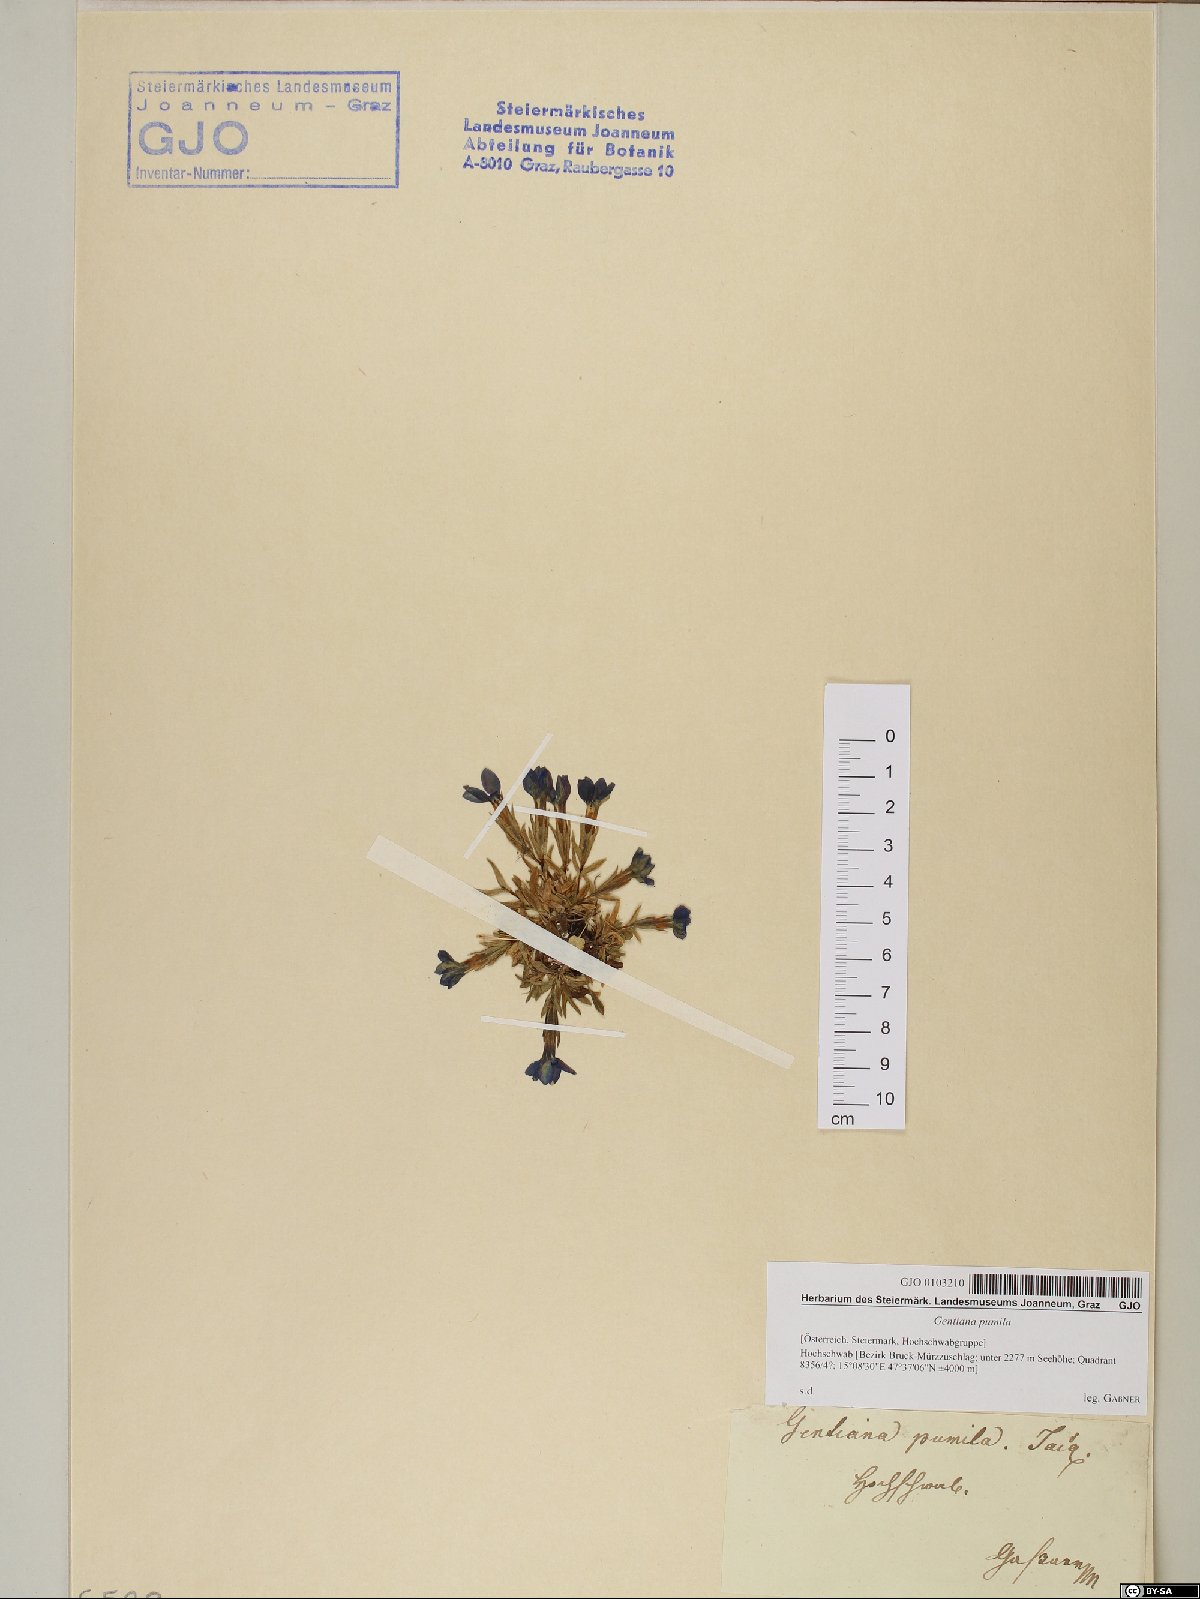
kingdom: Plantae
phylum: Tracheophyta
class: Magnoliopsida
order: Gentianales
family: Gentianaceae
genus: Gentiana
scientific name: Gentiana pumila
